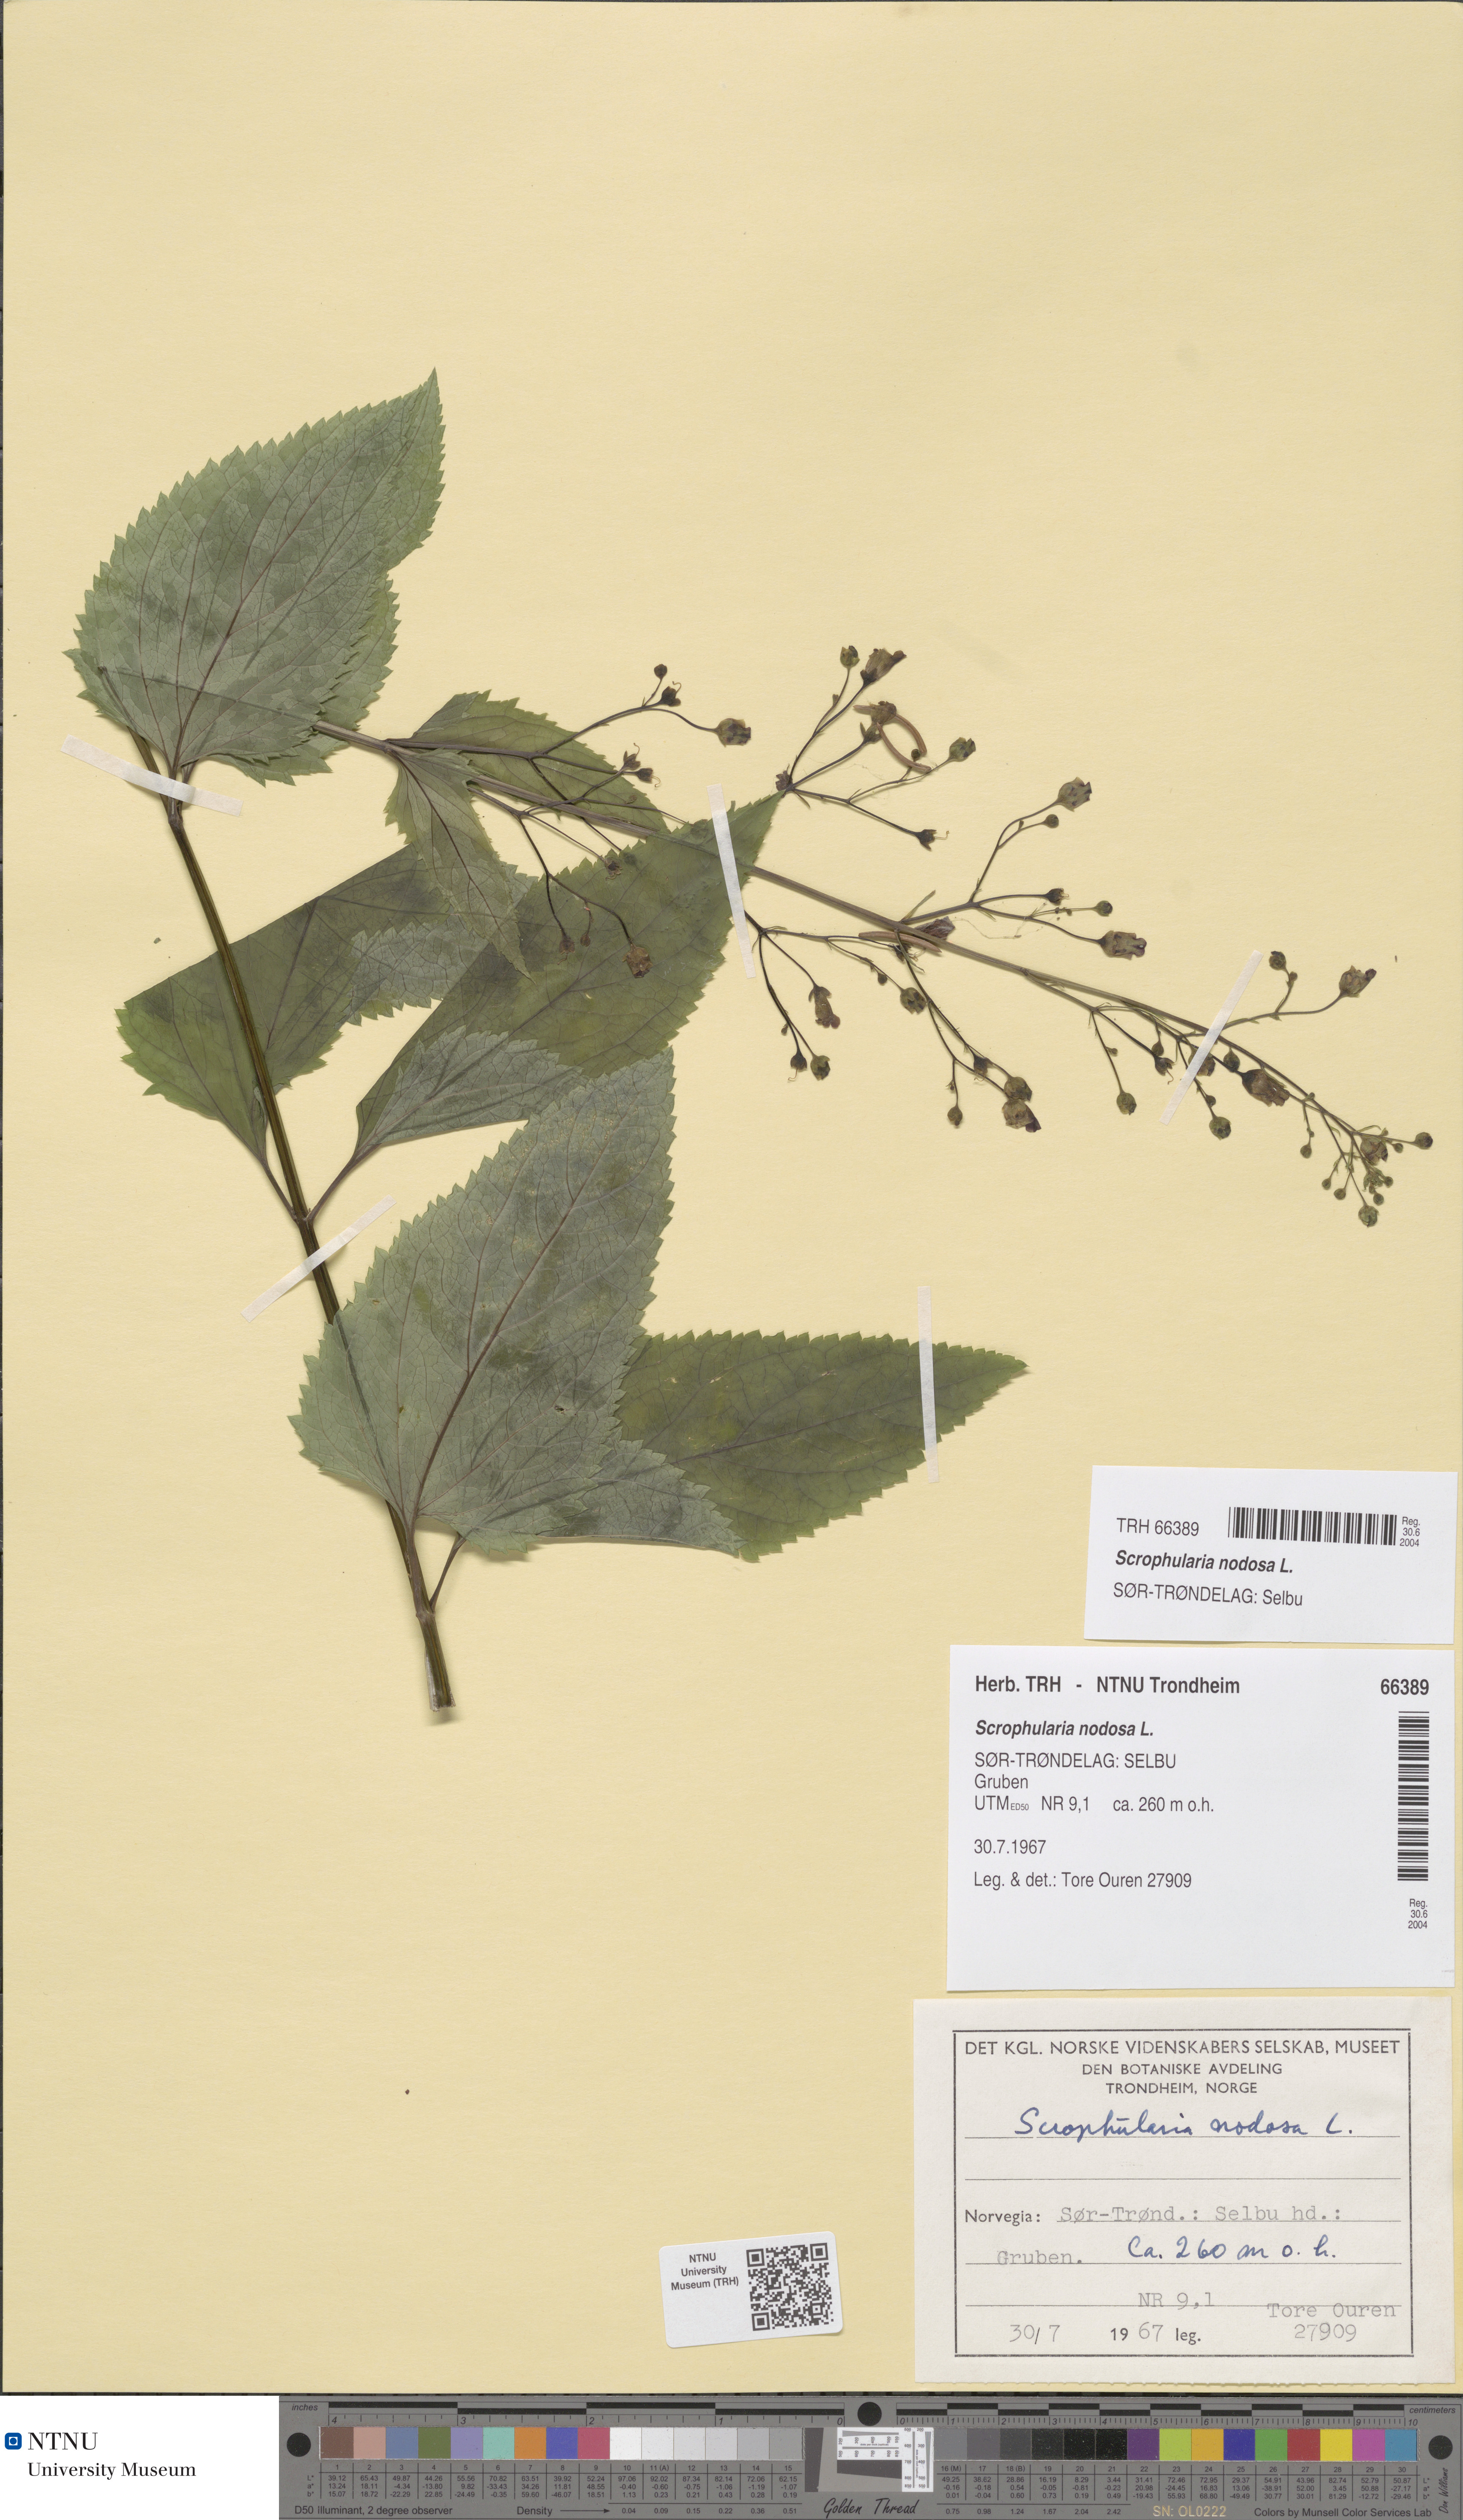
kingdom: Plantae
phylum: Tracheophyta
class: Magnoliopsida
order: Lamiales
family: Scrophulariaceae
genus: Scrophularia
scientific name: Scrophularia nodosa
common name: Common figwort
